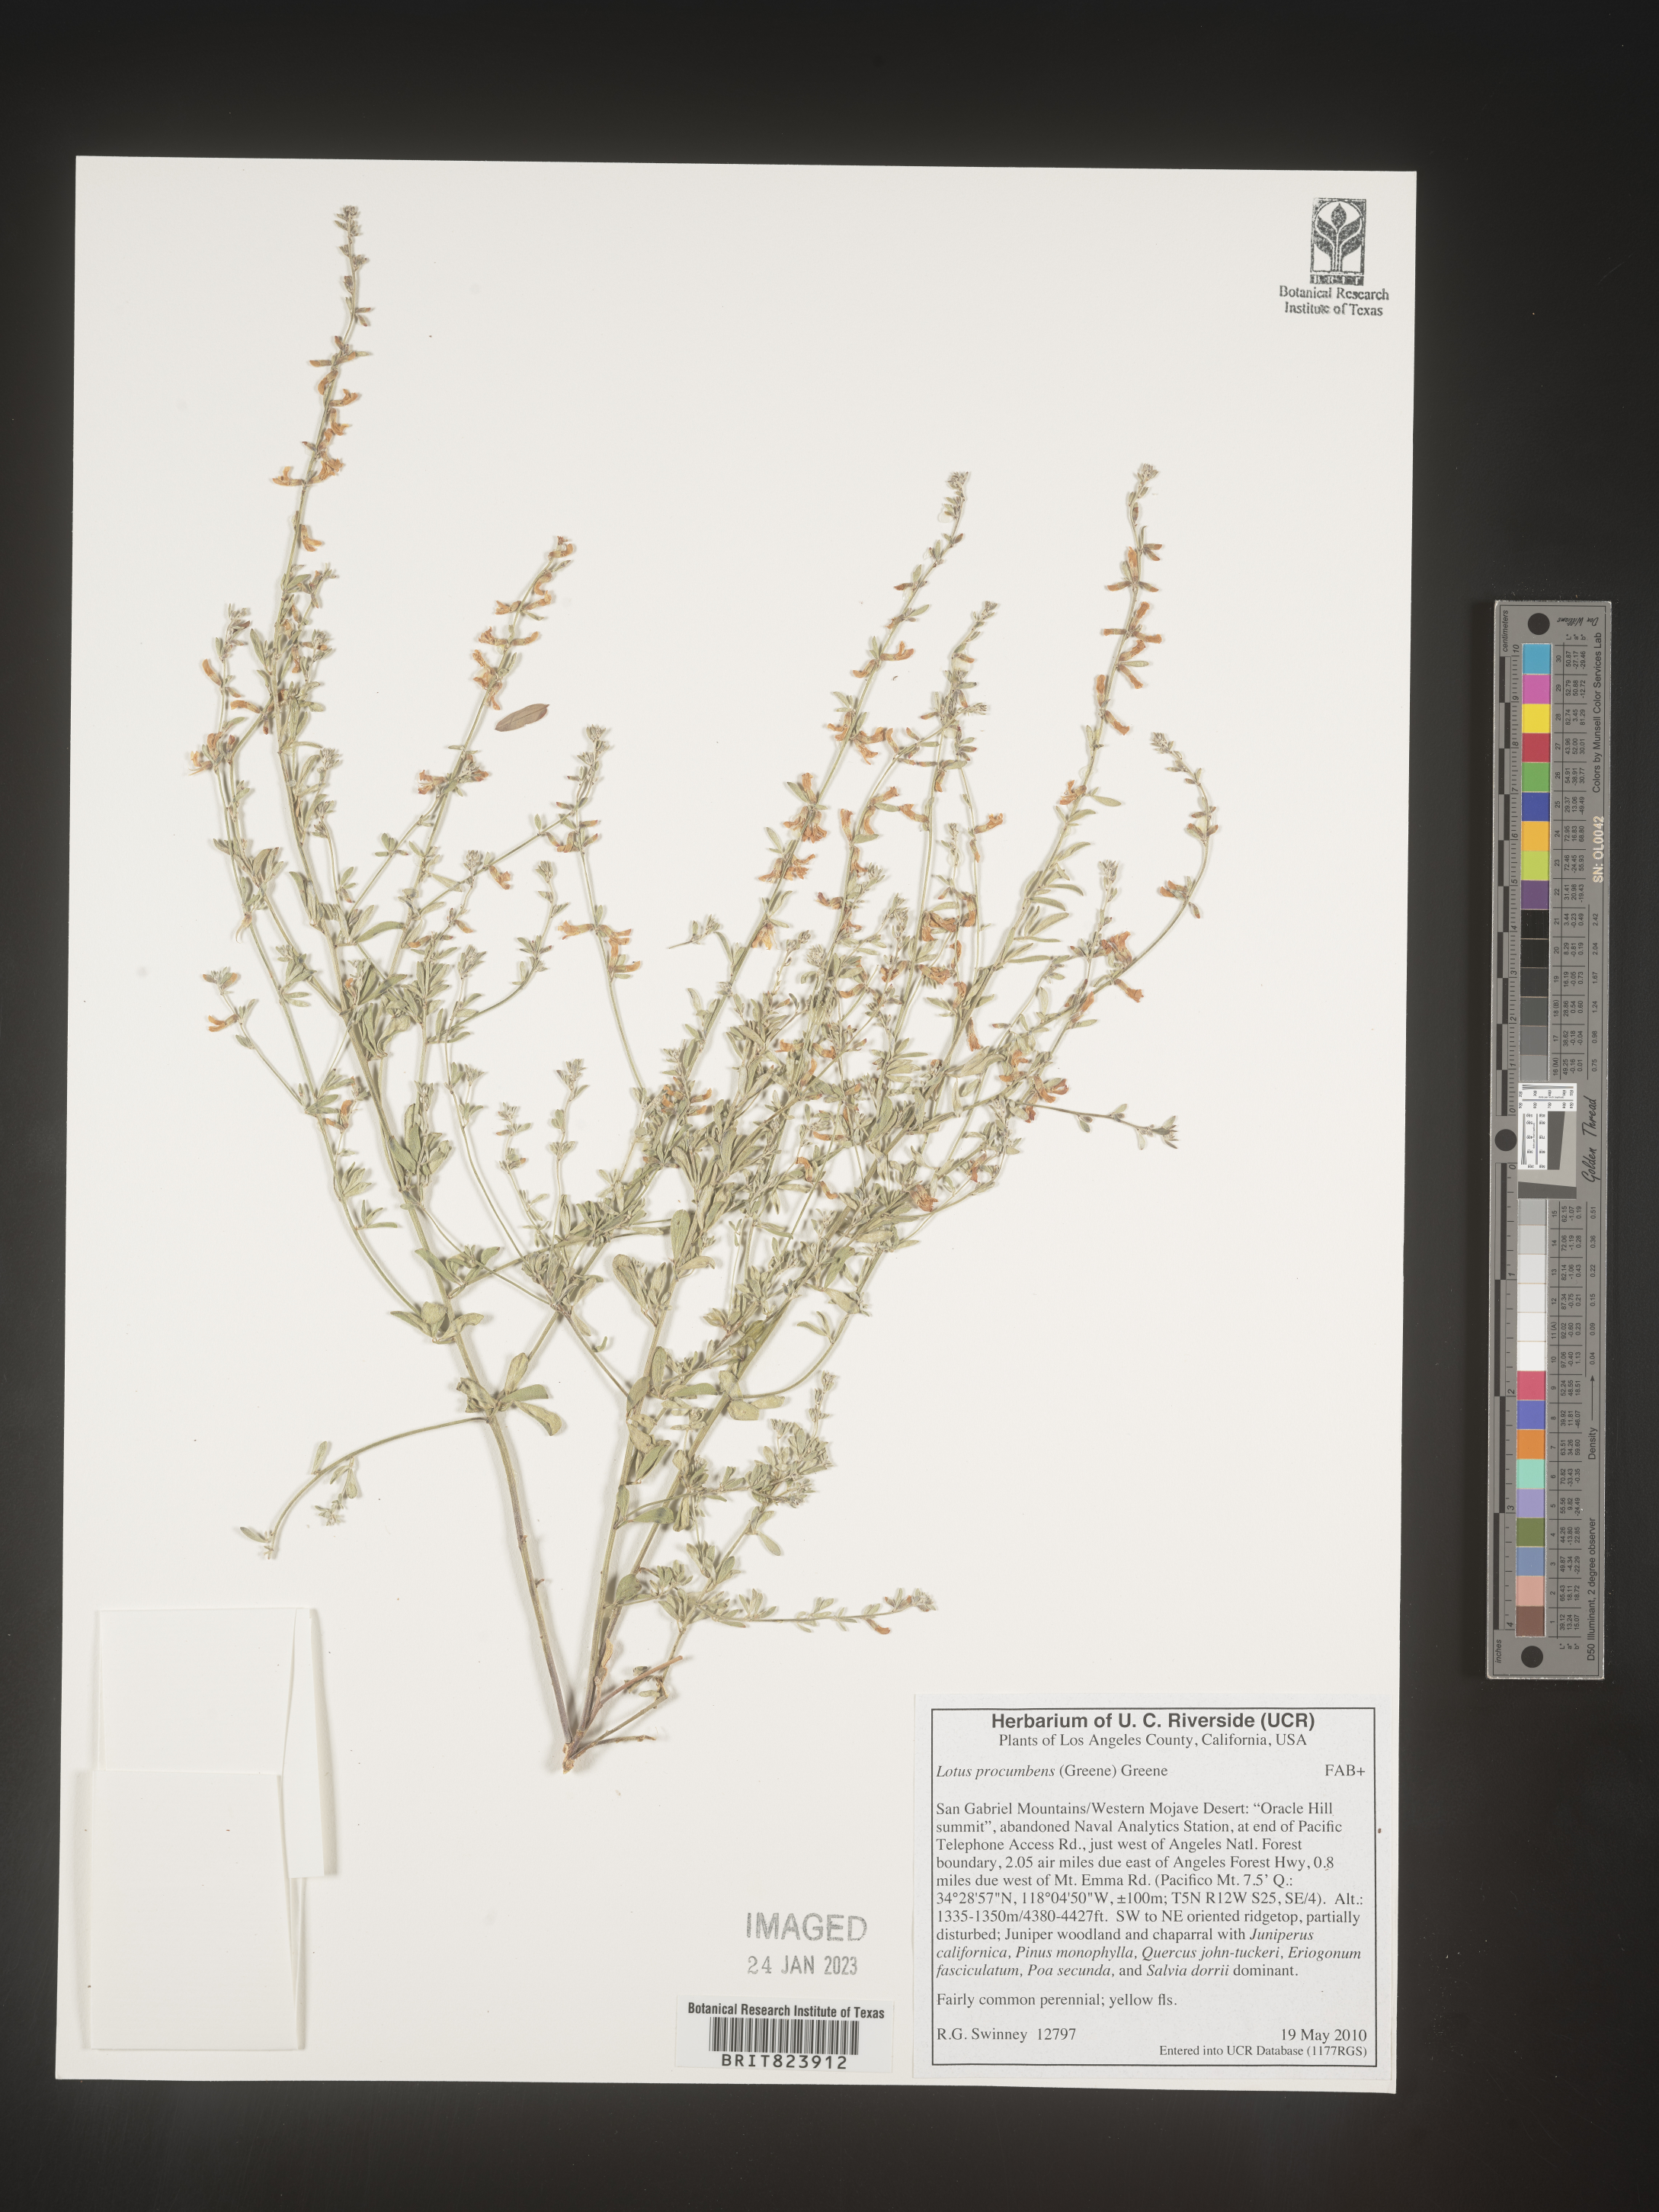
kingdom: Plantae
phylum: Tracheophyta
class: Magnoliopsida
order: Fabales
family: Fabaceae
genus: Lotus
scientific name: Lotus
